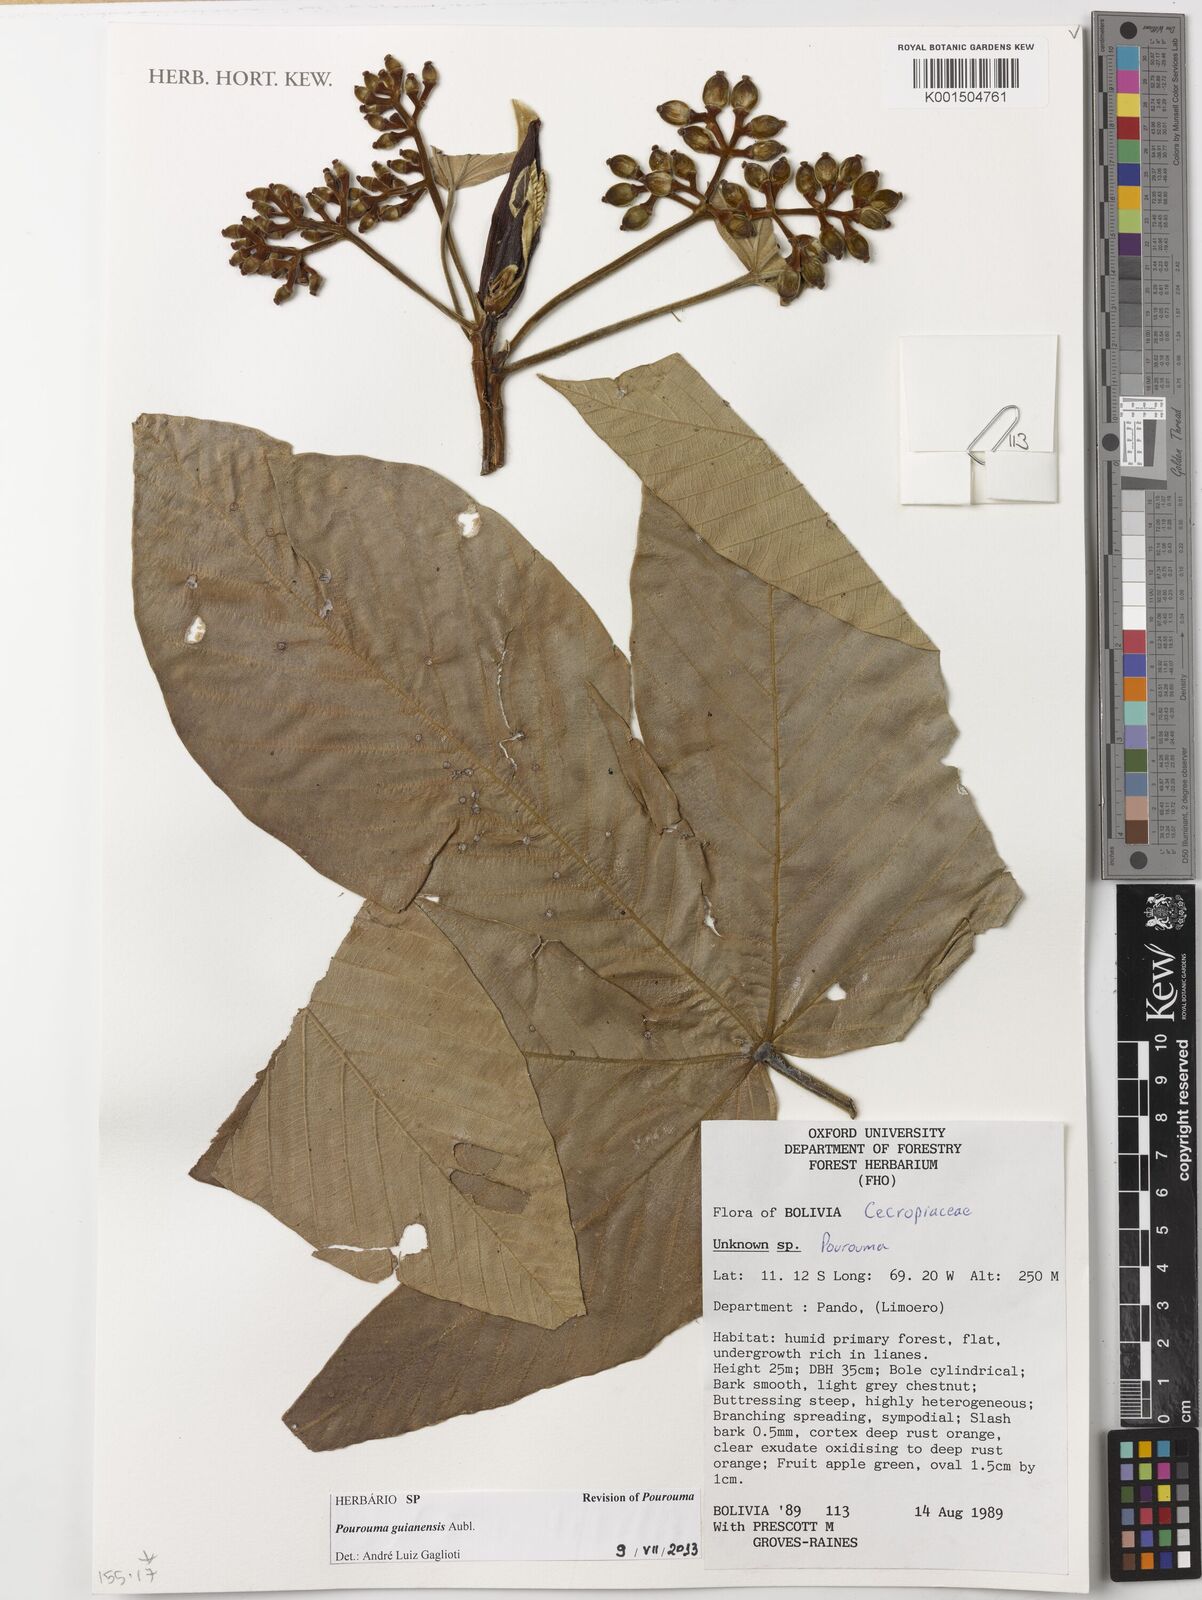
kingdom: Plantae
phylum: Tracheophyta
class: Magnoliopsida
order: Rosales
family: Urticaceae
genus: Pourouma
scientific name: Pourouma guianensis
